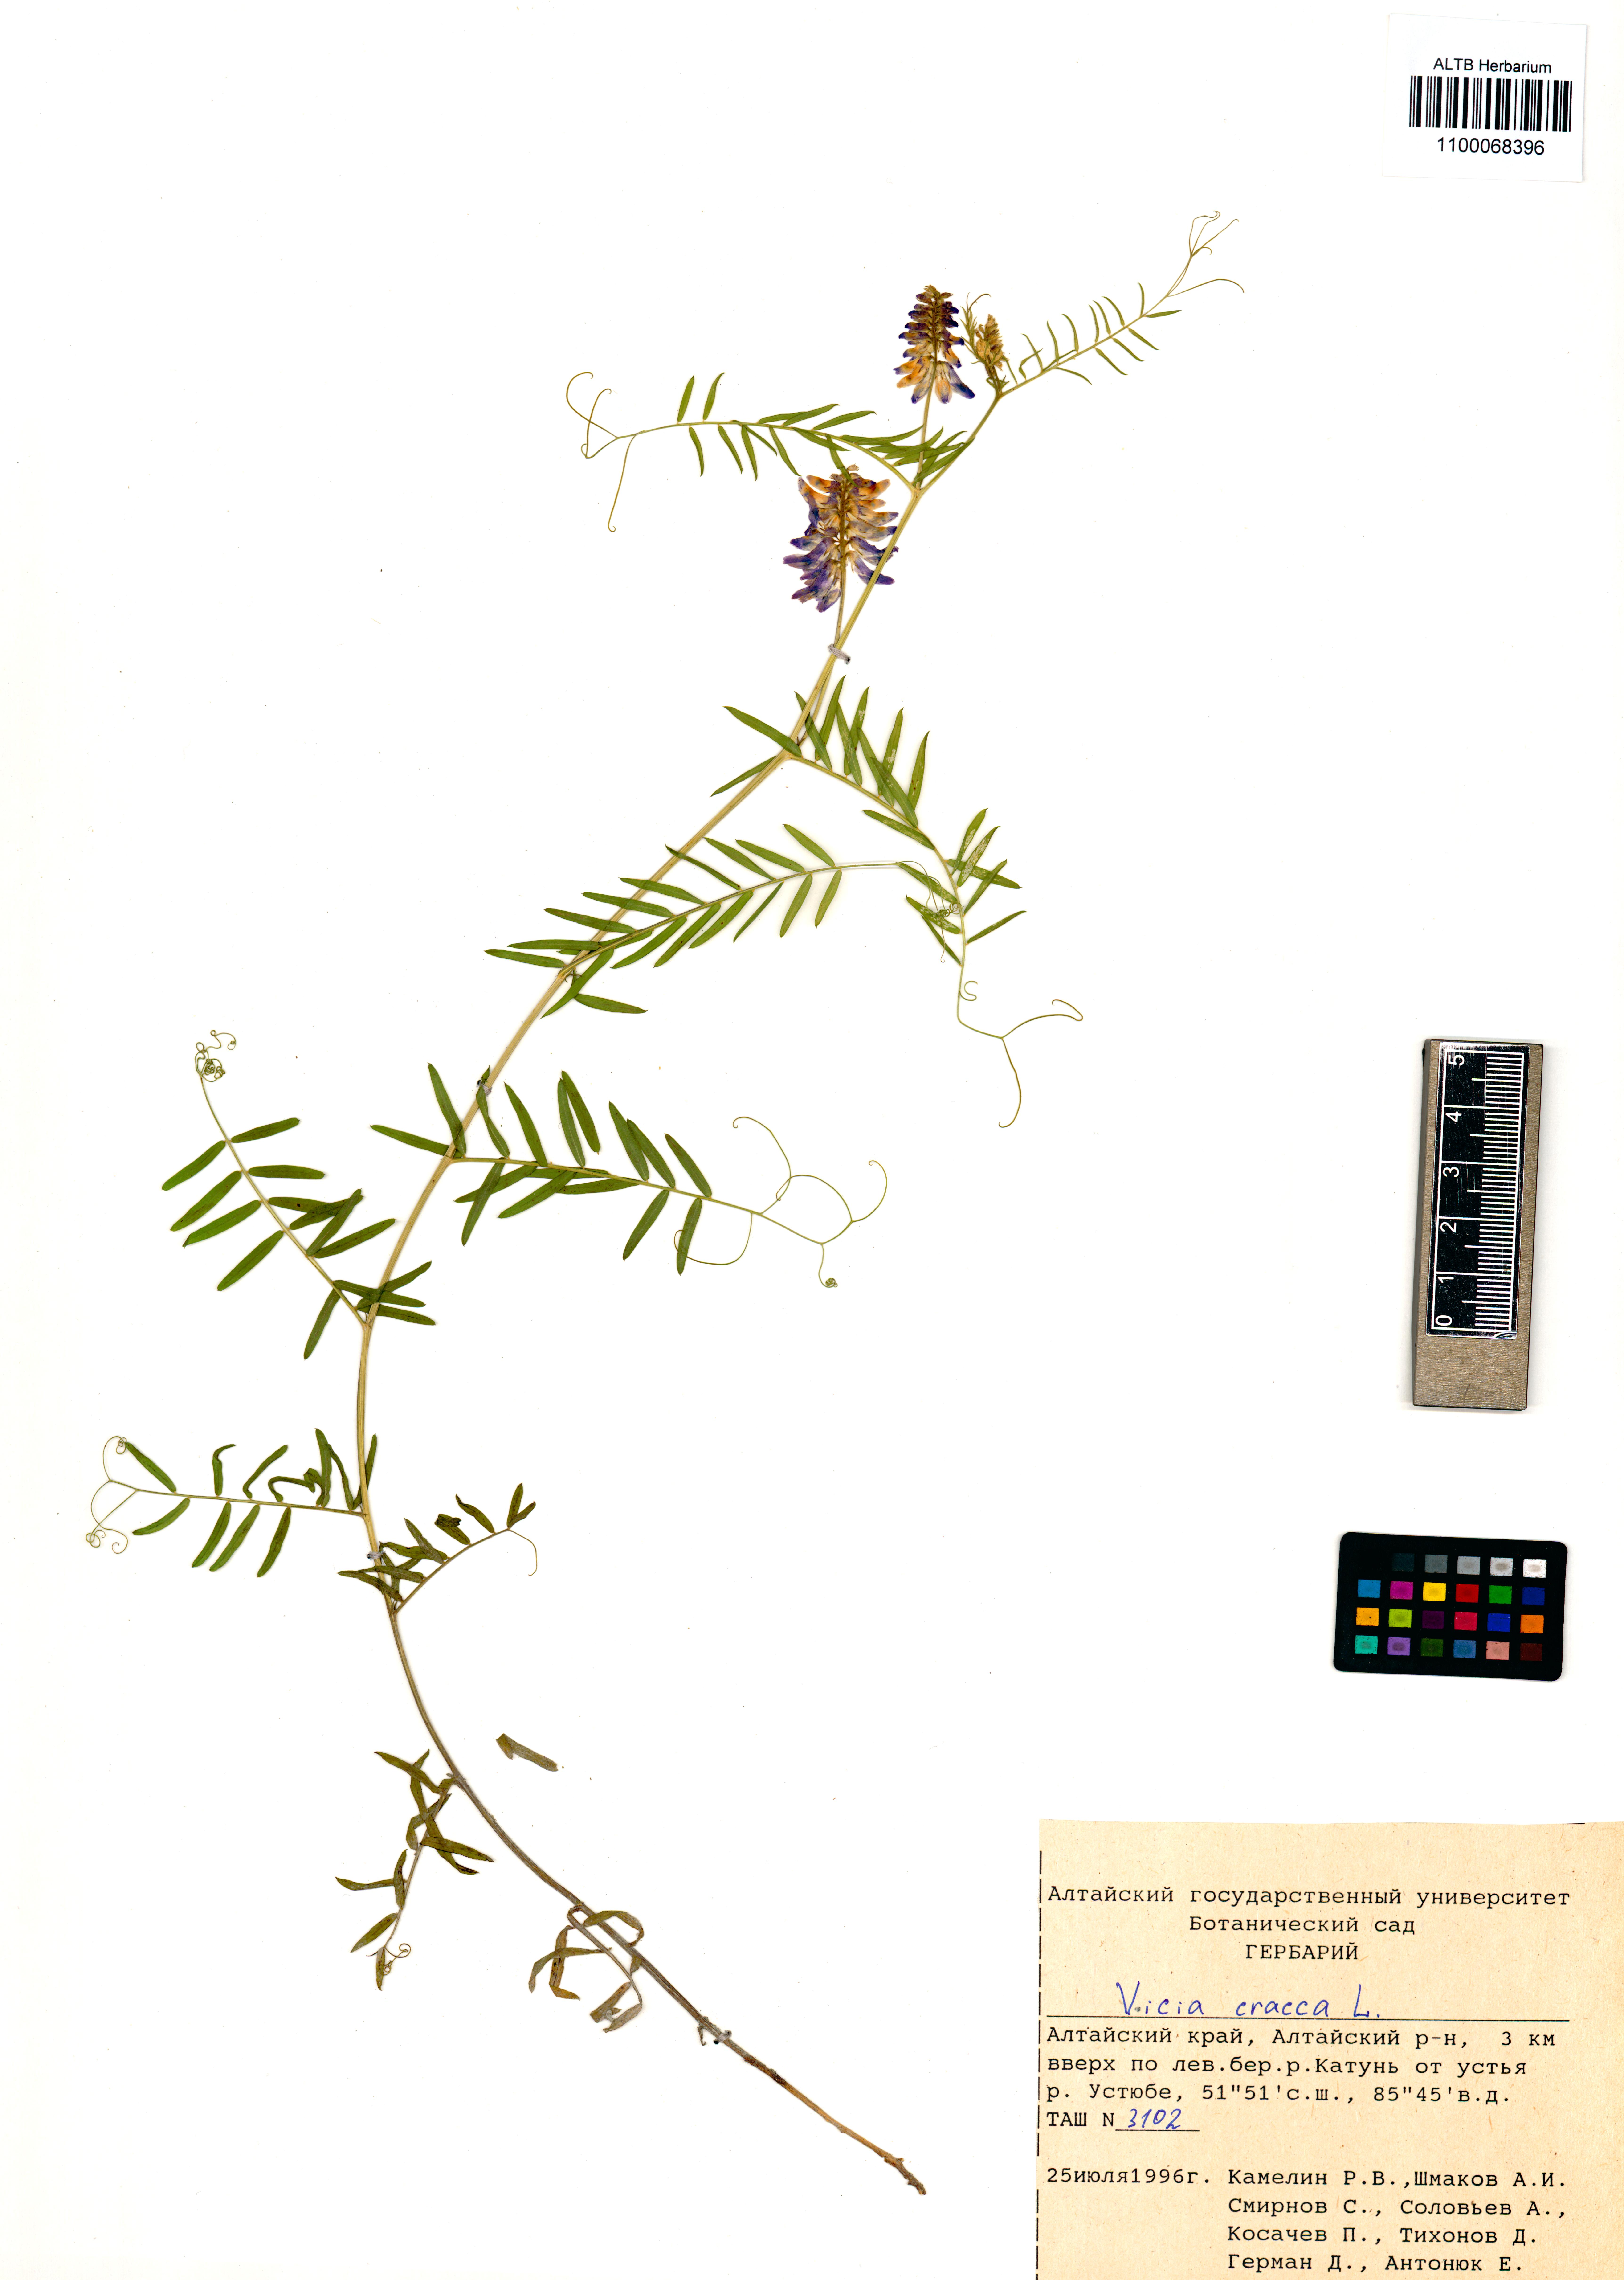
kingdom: Plantae
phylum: Tracheophyta
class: Magnoliopsida
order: Fabales
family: Fabaceae
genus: Vicia
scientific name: Vicia cracca
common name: Bird vetch
